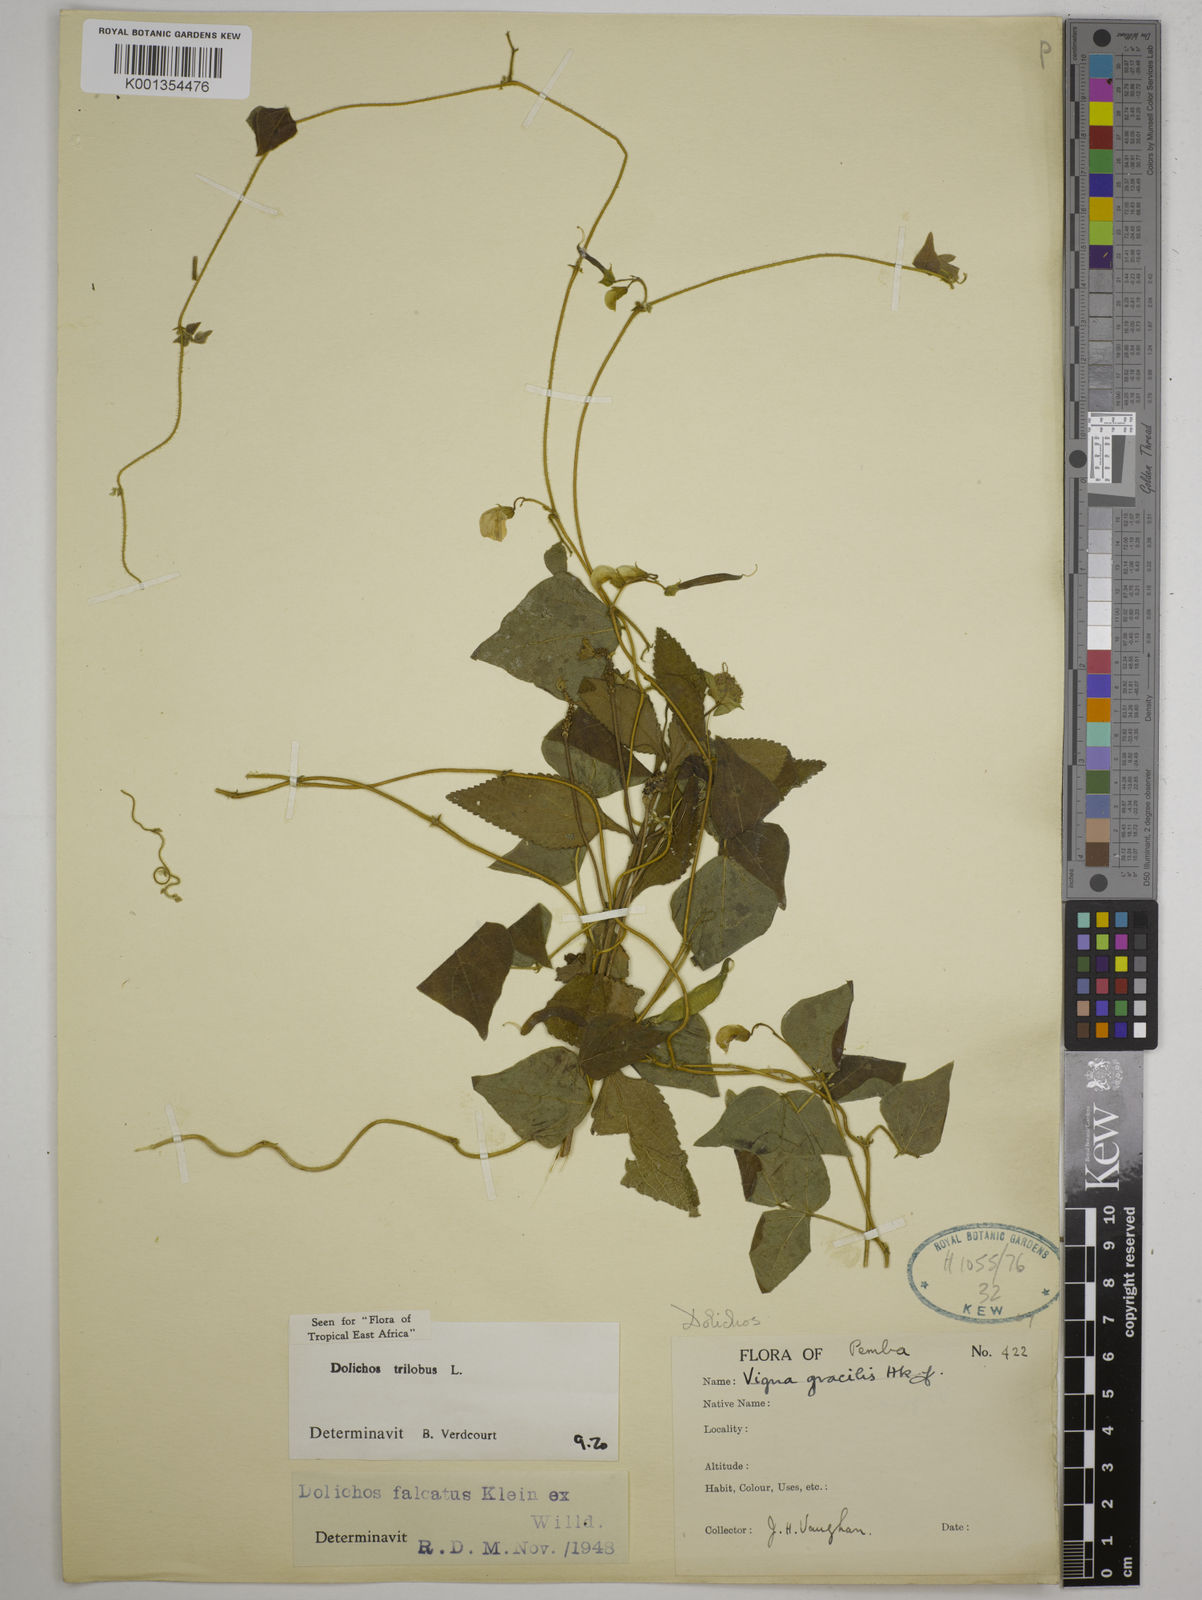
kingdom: Plantae
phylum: Tracheophyta
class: Magnoliopsida
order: Fabales
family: Fabaceae
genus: Dolichos
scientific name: Dolichos
